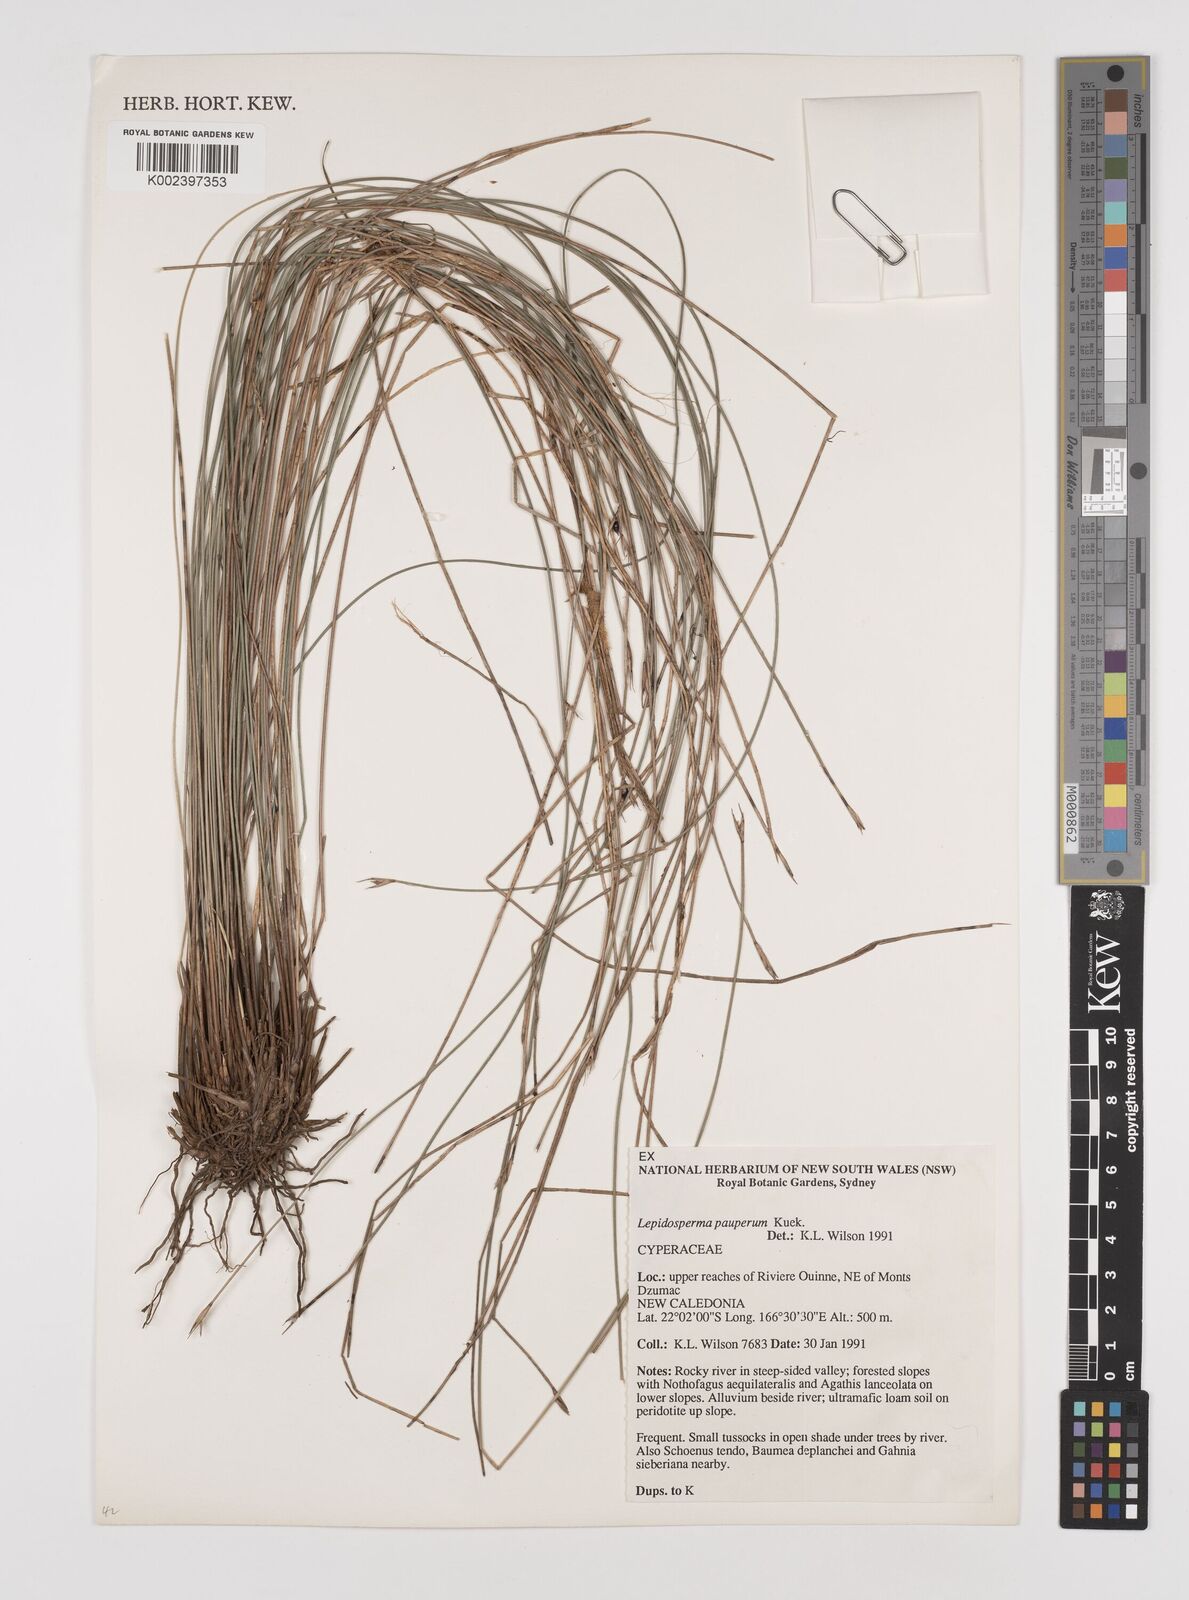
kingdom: Plantae
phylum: Tracheophyta
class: Liliopsida
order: Poales
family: Cyperaceae
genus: Lepidosperma
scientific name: Lepidosperma pauperum
